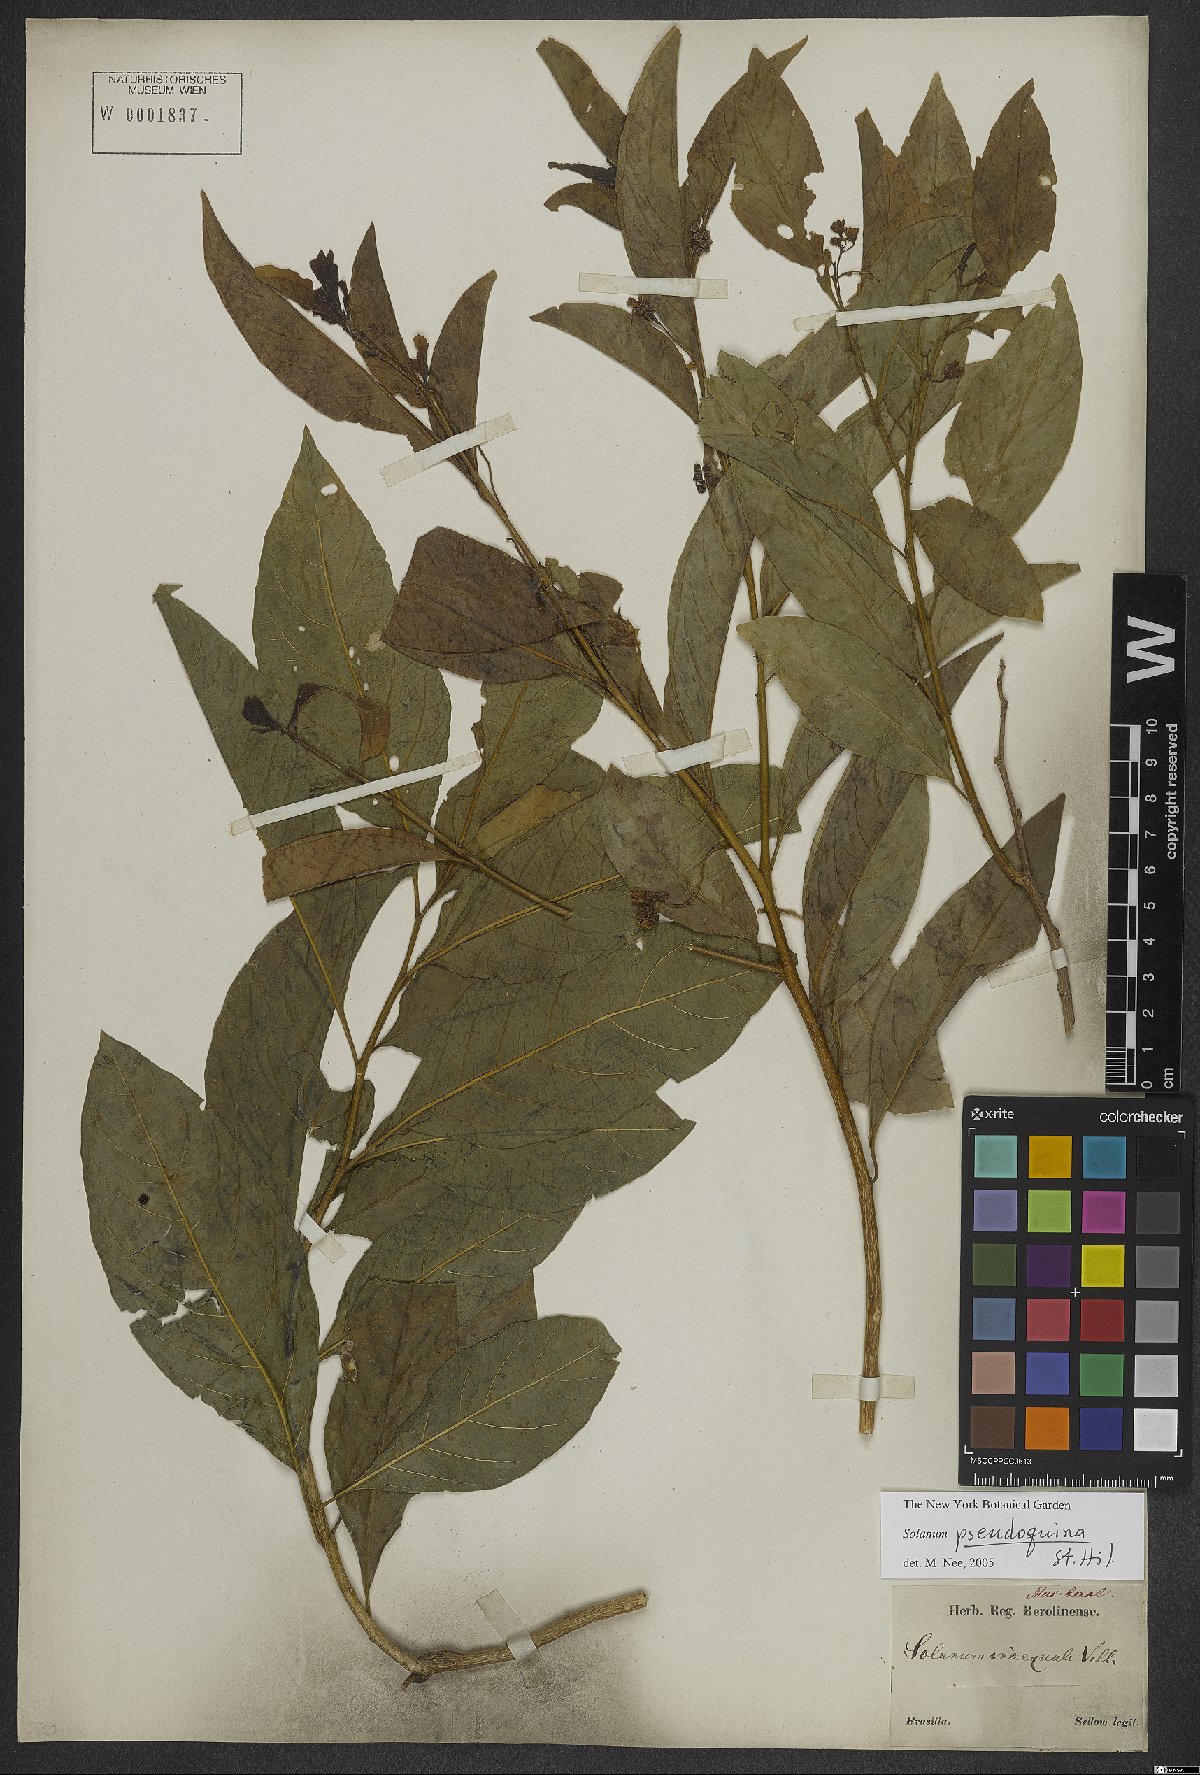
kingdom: Plantae
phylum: Tracheophyta
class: Magnoliopsida
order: Solanales
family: Solanaceae
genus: Solanum
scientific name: Solanum pseudoquina
